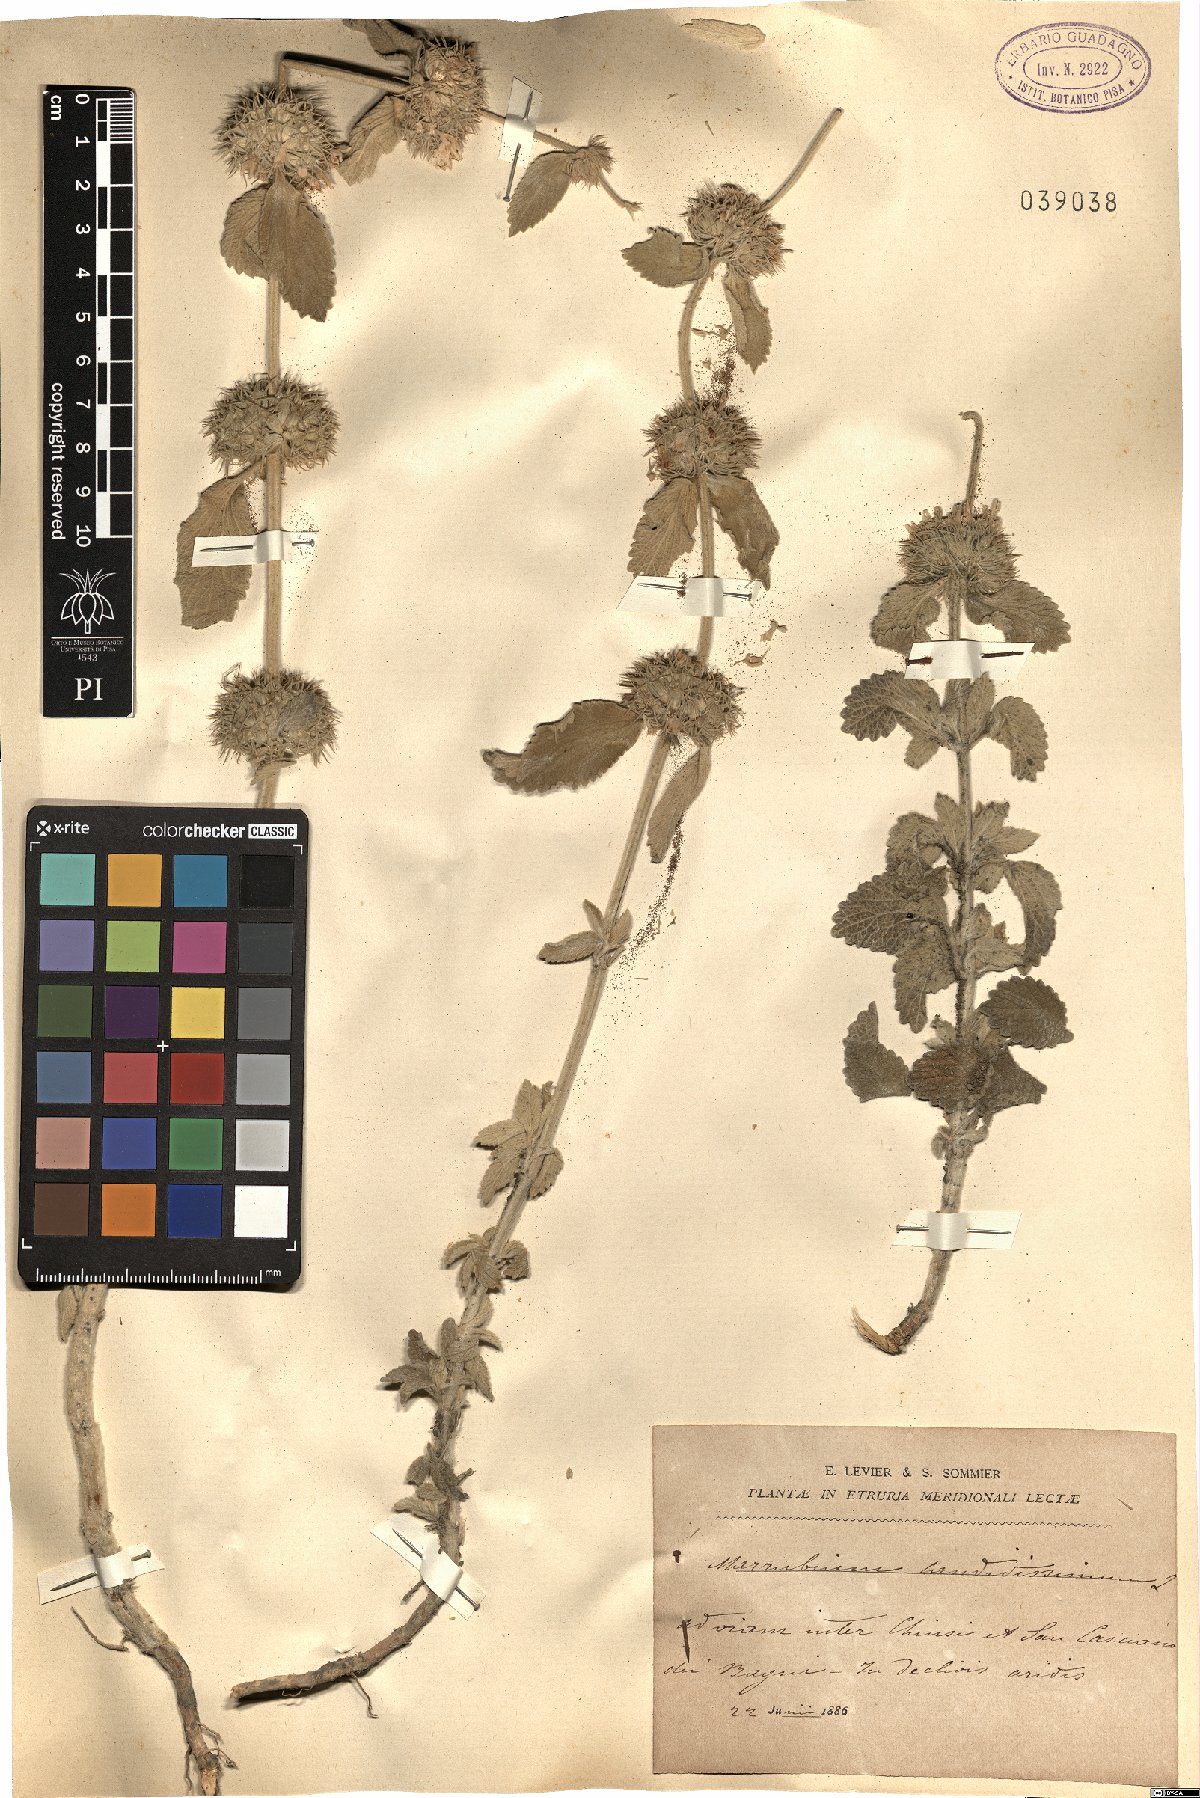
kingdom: Plantae
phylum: Tracheophyta
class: Magnoliopsida
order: Lamiales
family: Lamiaceae
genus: Marrubium
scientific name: Marrubium peregrinum
